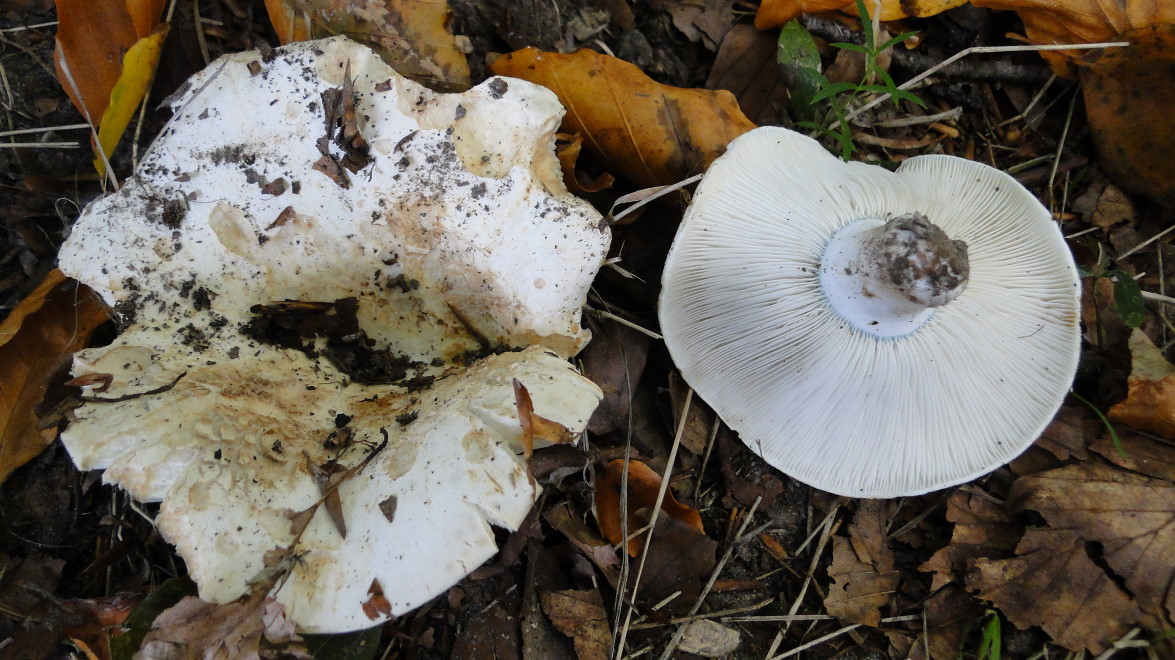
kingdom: Fungi
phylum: Basidiomycota
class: Agaricomycetes
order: Russulales
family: Russulaceae
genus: Russula
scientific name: Russula chloroides
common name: grønhalset tragt-skørhat
